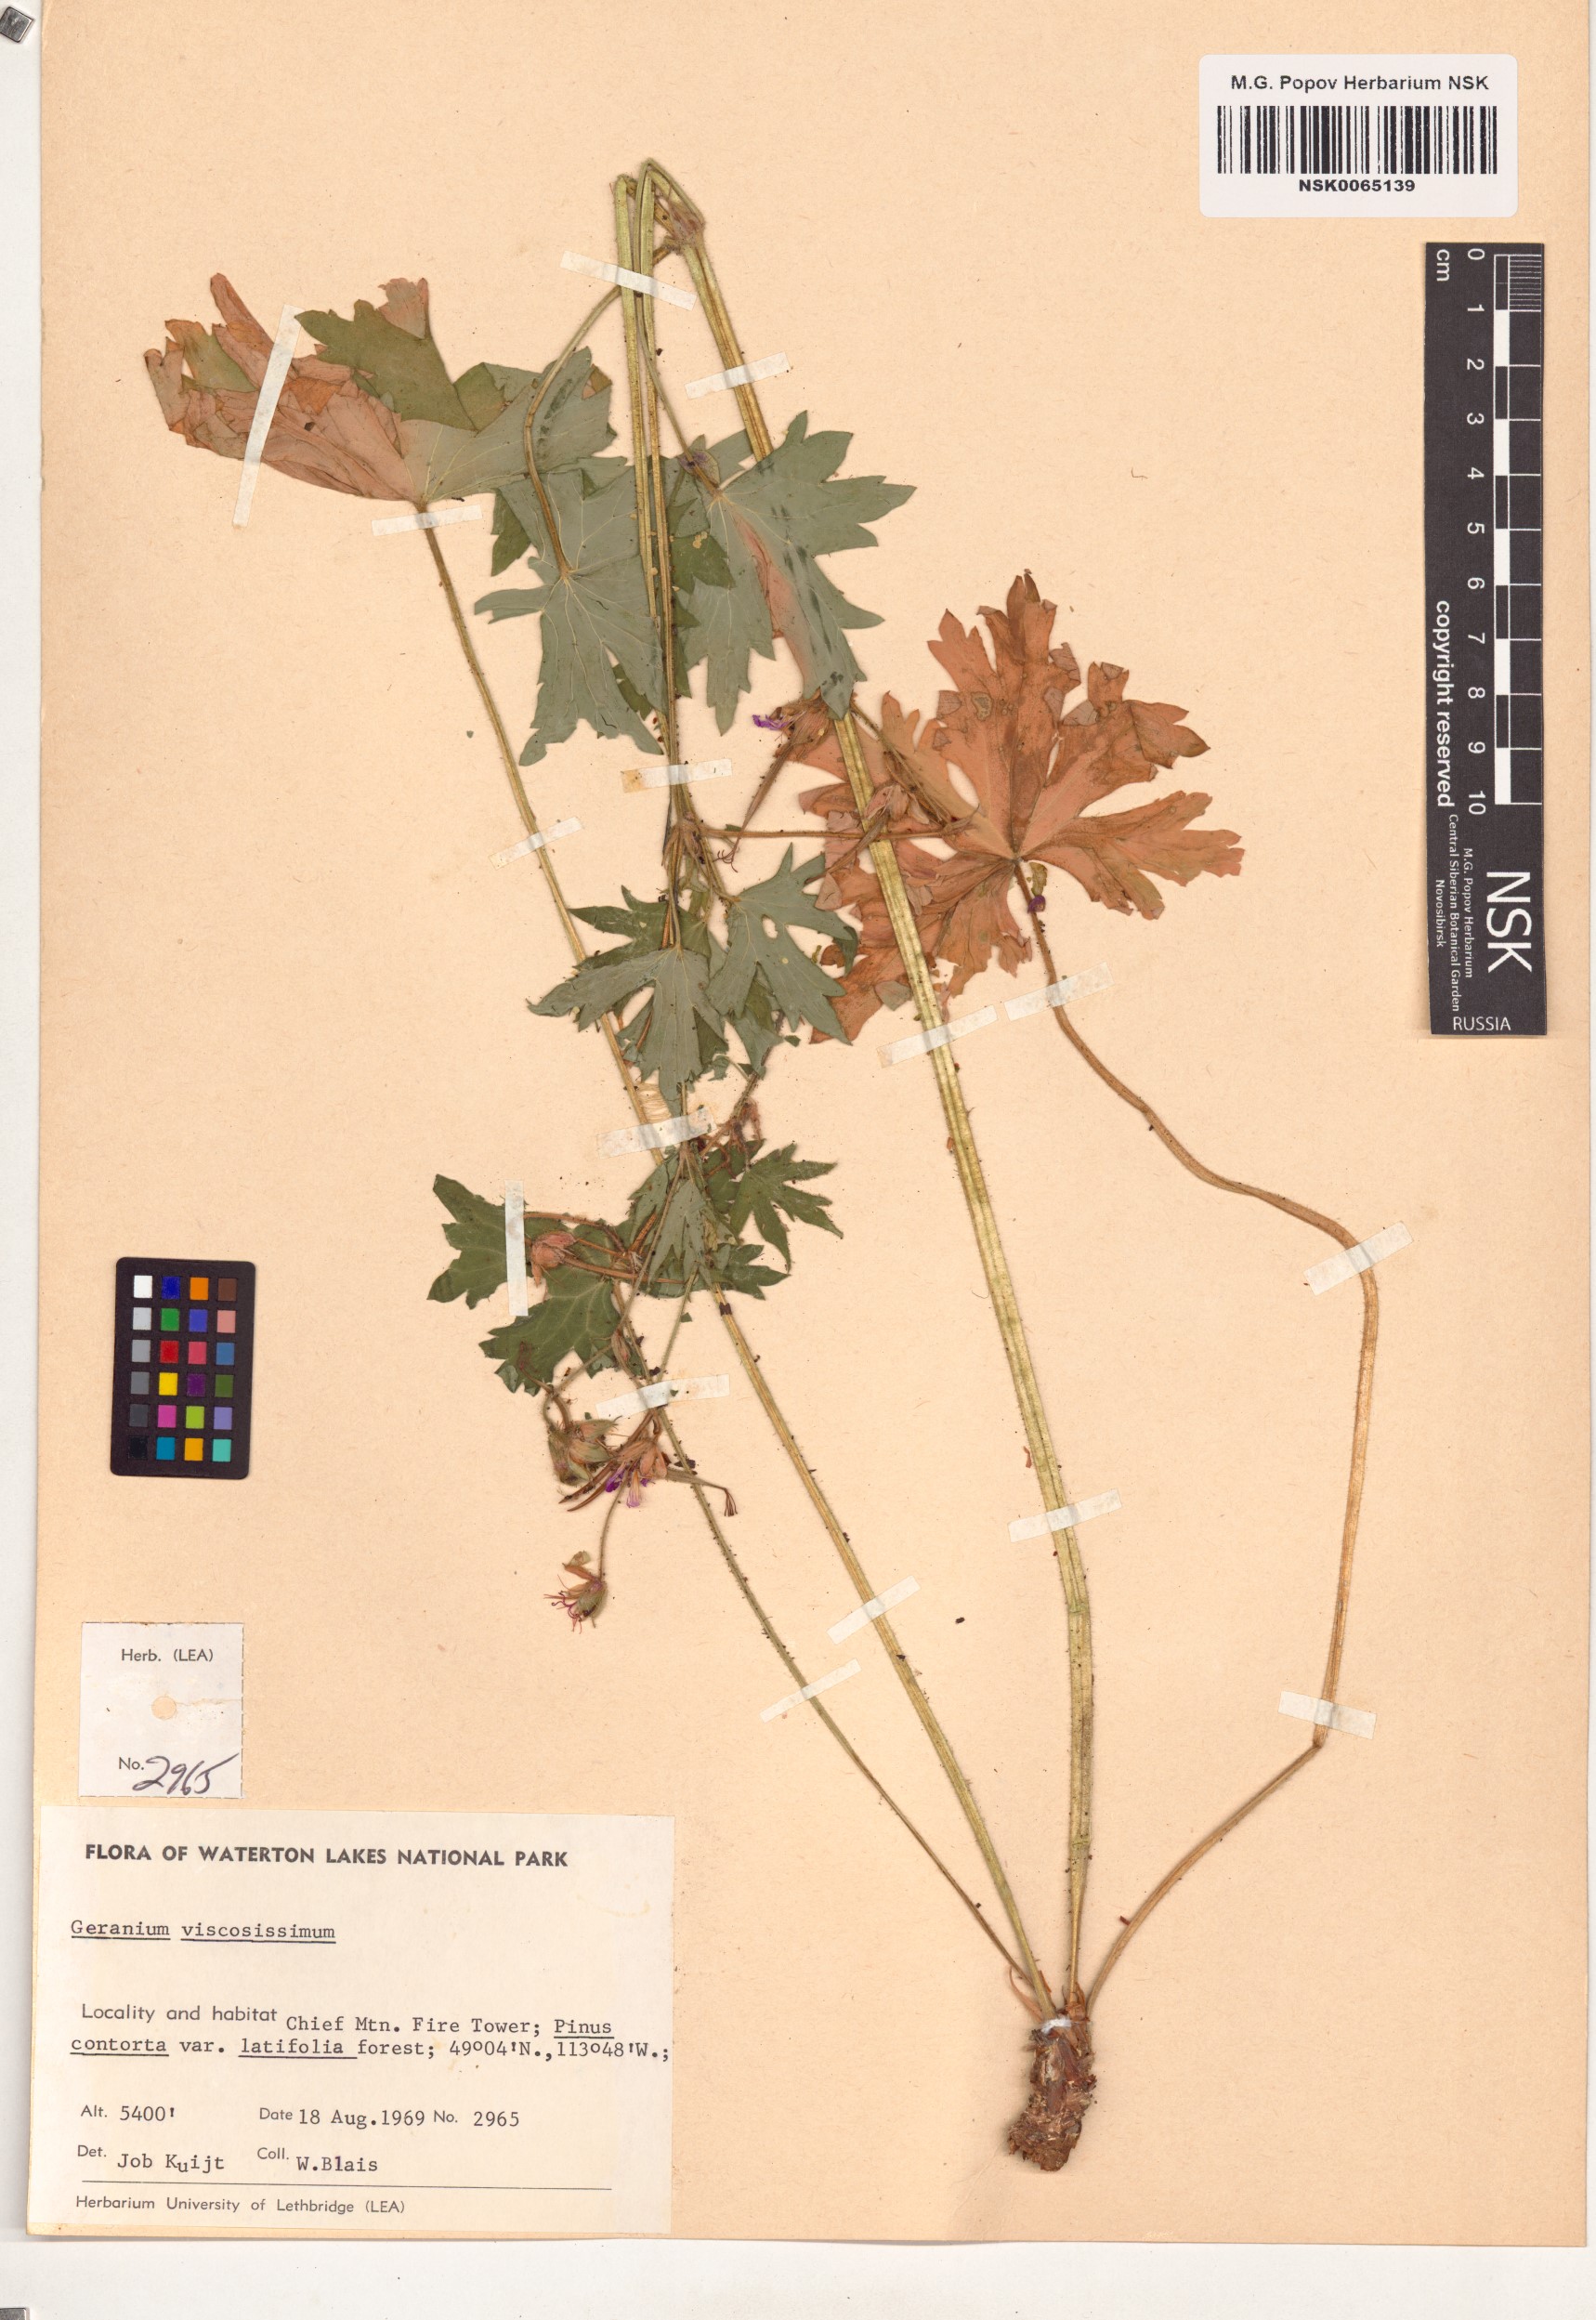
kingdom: Plantae
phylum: Tracheophyta
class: Magnoliopsida
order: Geraniales
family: Geraniaceae
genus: Geranium
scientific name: Geranium viscosissimum
